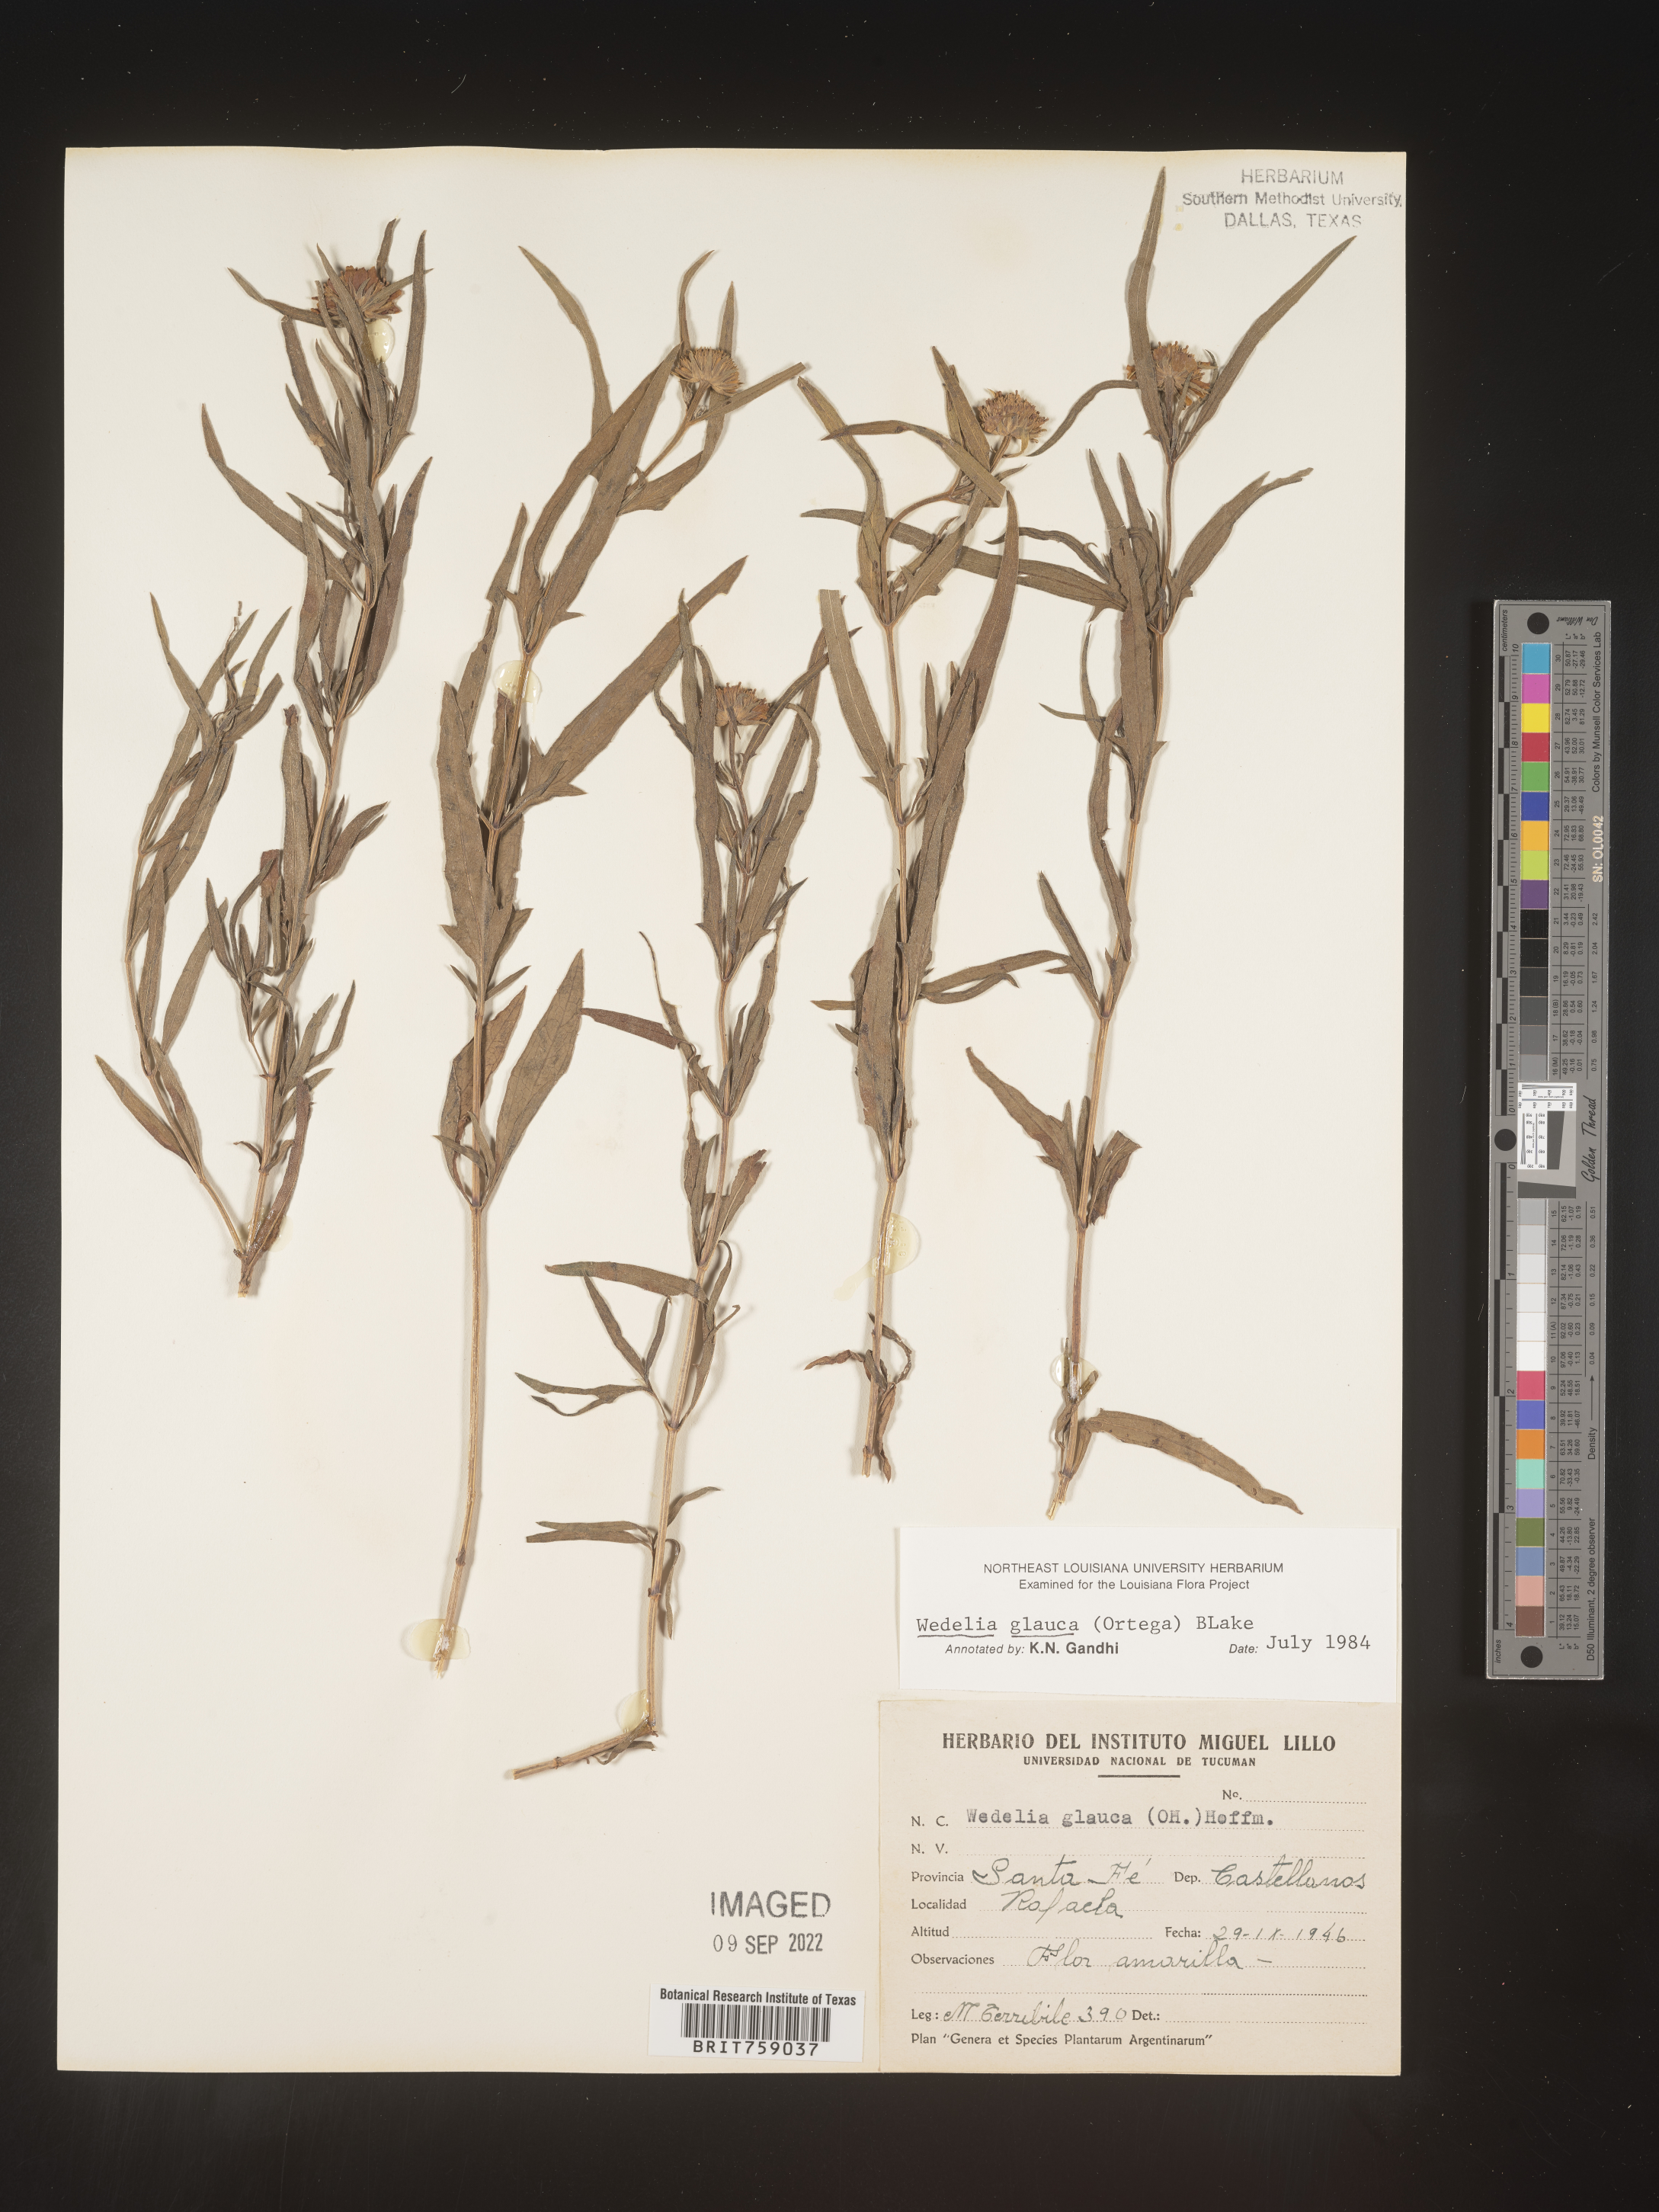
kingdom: Plantae
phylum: Tracheophyta
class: Magnoliopsida
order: Asterales
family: Asteraceae
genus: Wedelia
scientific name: Wedelia
